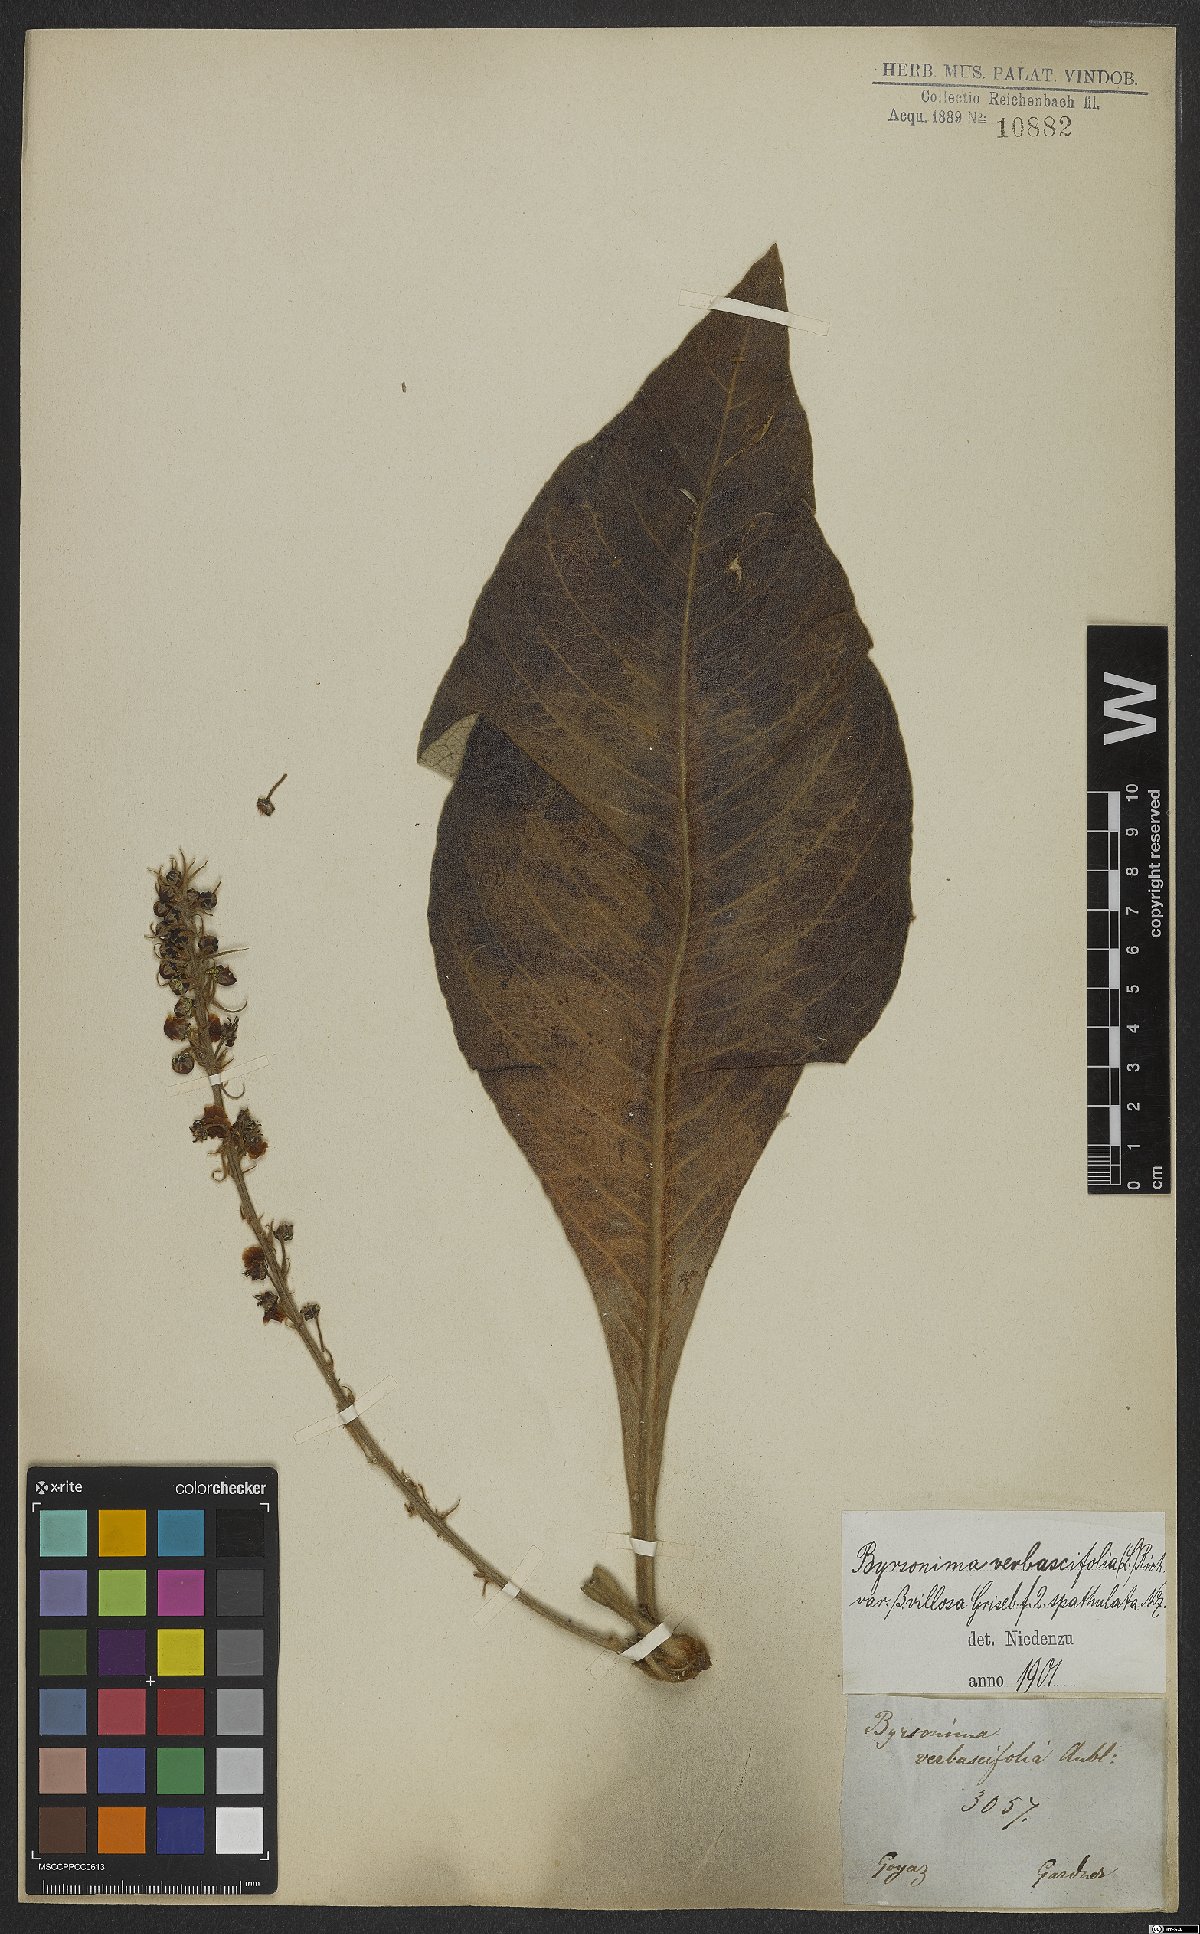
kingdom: Plantae
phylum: Tracheophyta
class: Magnoliopsida
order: Malpighiales
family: Malpighiaceae
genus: Byrsonima
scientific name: Byrsonima verbascifolia
